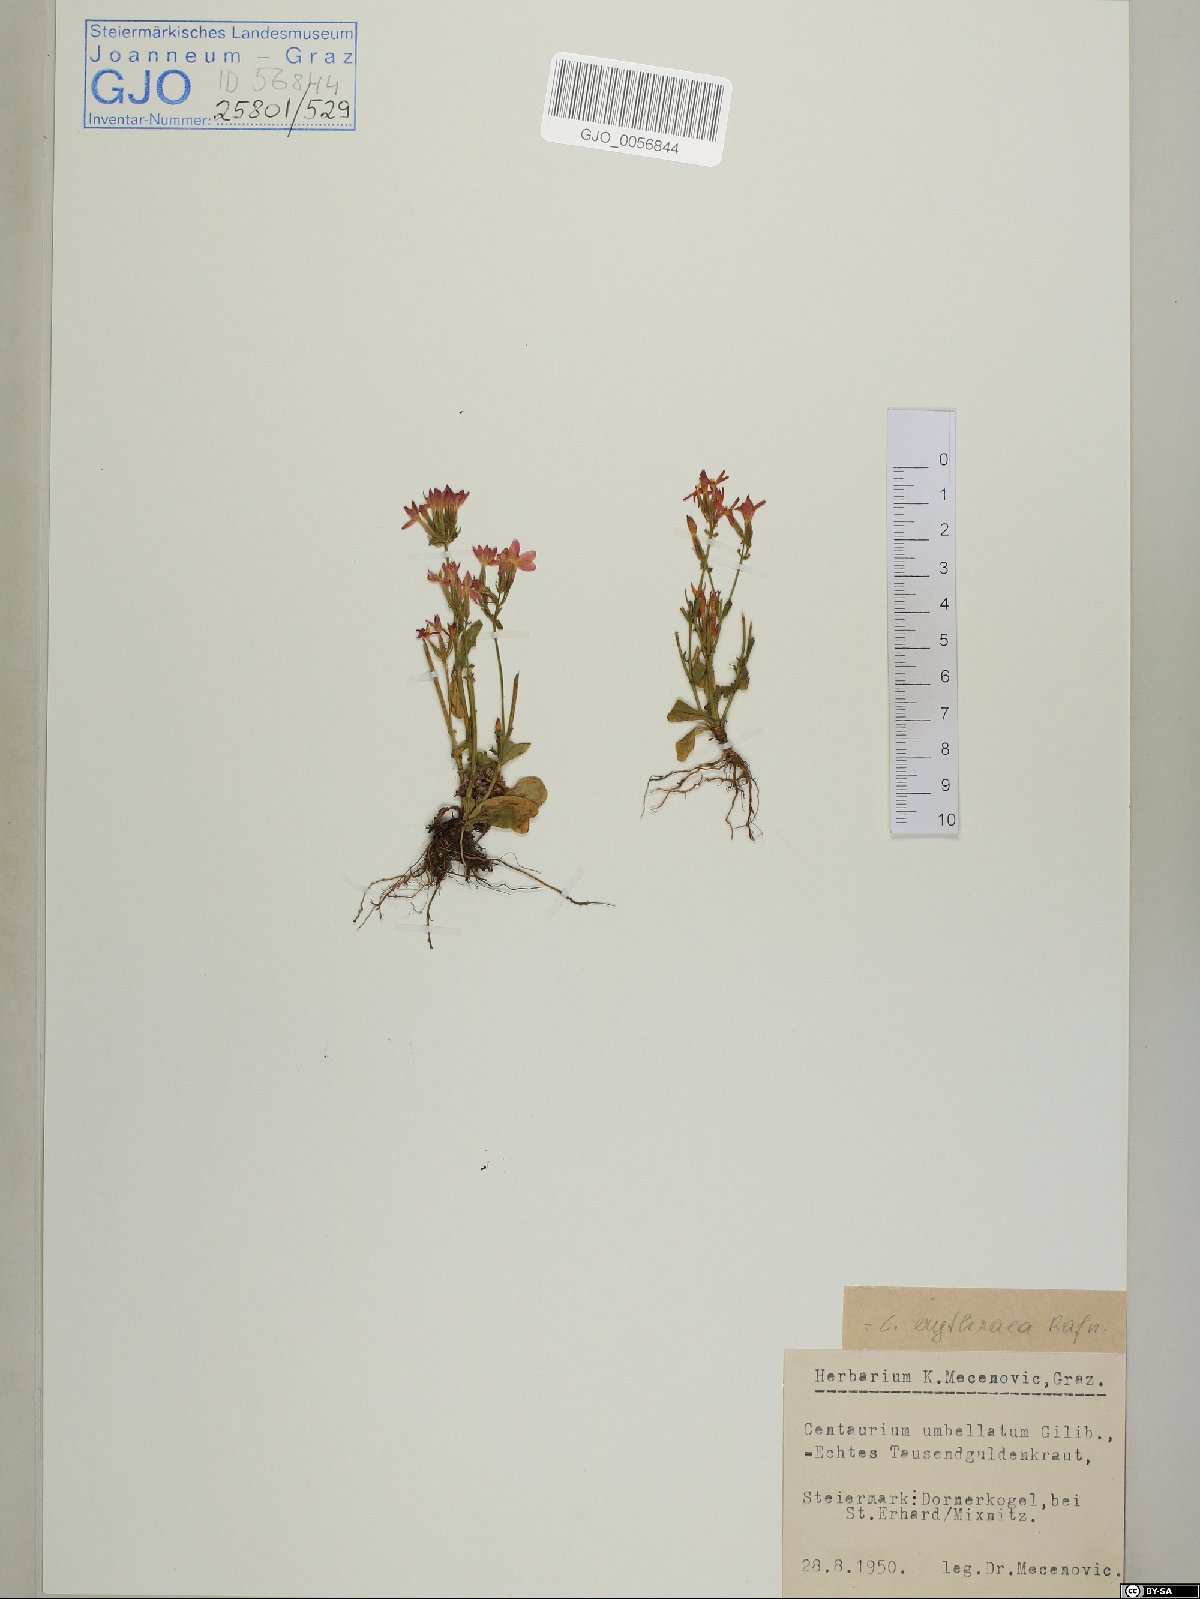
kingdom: Plantae
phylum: Tracheophyta
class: Magnoliopsida
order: Gentianales
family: Gentianaceae
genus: Centaurium
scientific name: Centaurium erythraea
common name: Common centaury
